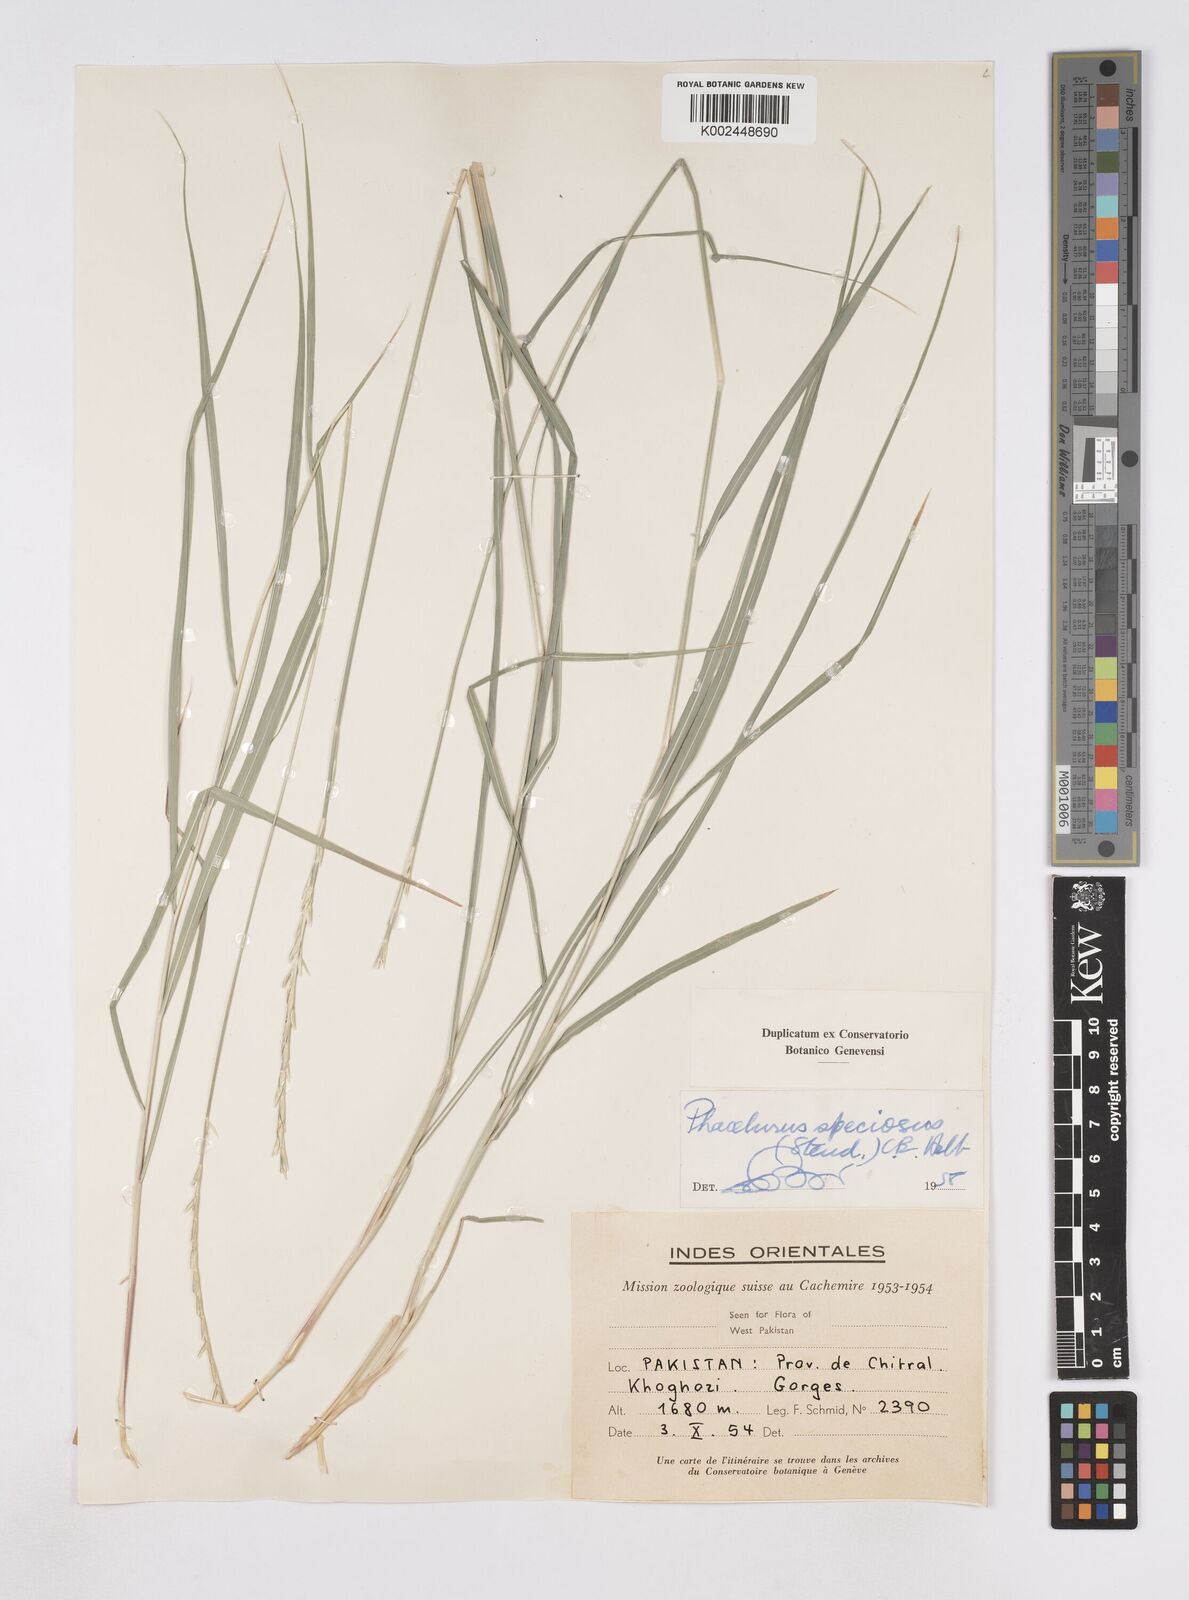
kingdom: Plantae
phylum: Tracheophyta
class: Liliopsida
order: Poales
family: Poaceae
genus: Phacelurus
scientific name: Phacelurus speciosus
